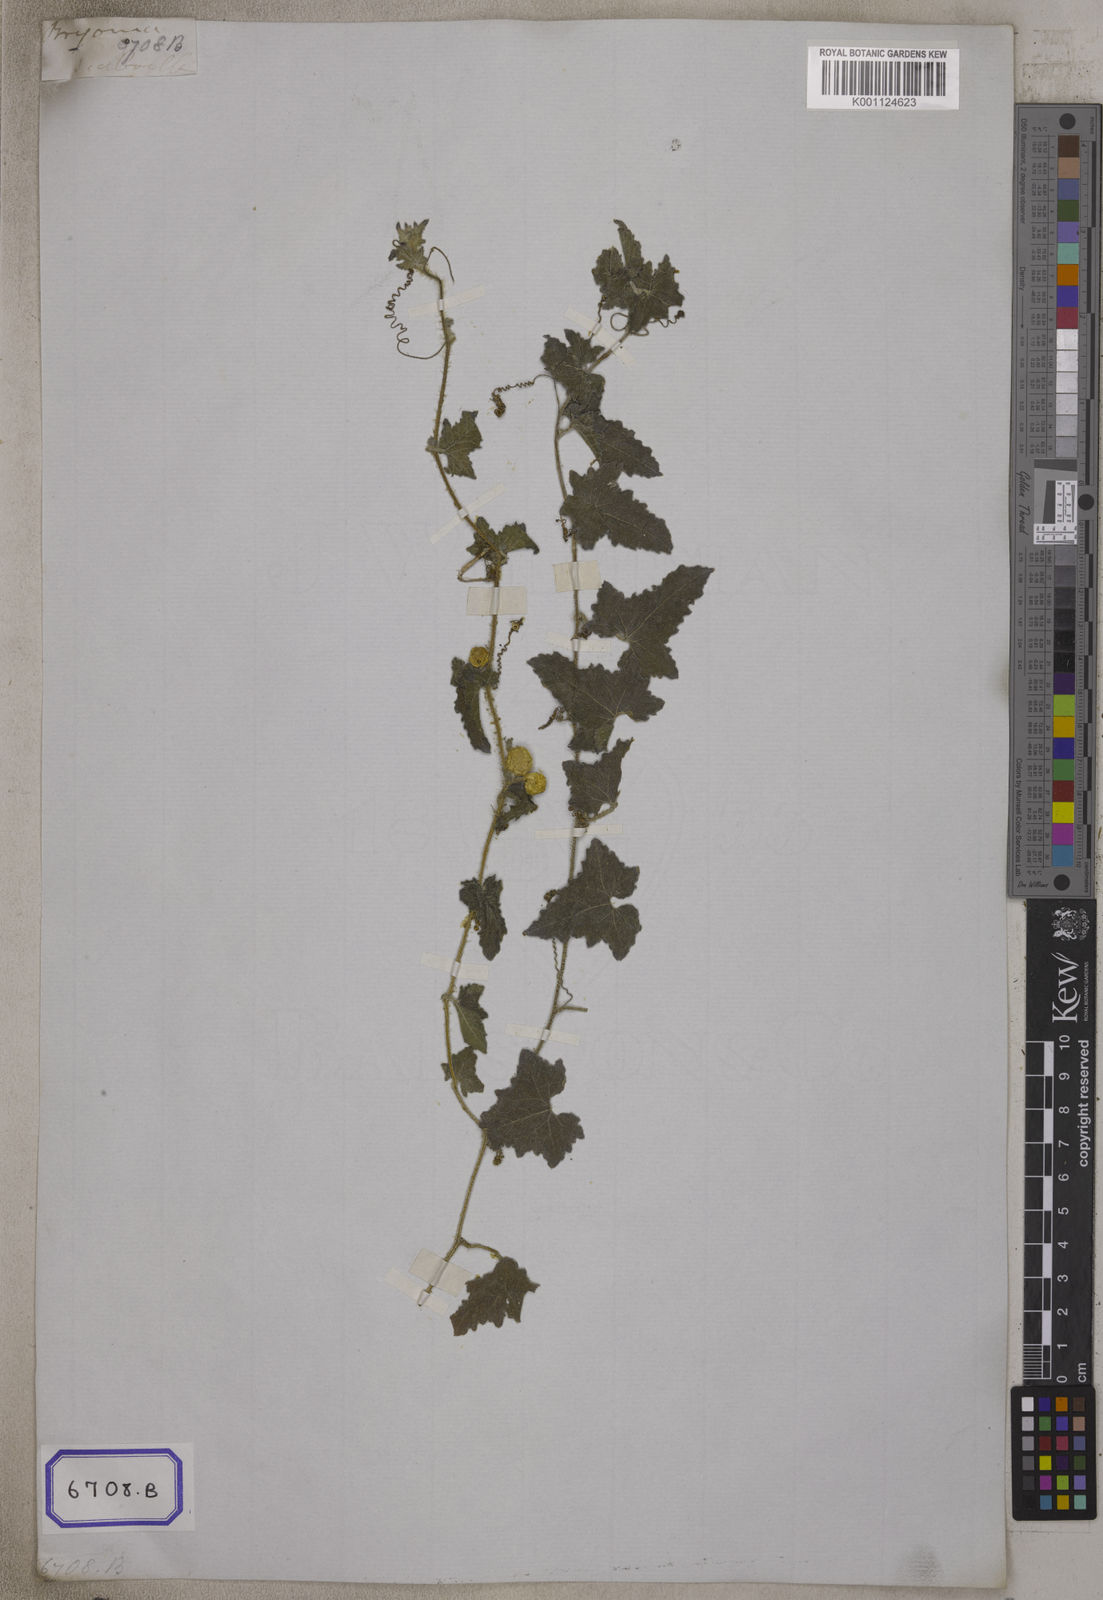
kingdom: Plantae
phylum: Tracheophyta
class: Magnoliopsida
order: Cucurbitales
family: Cucurbitaceae
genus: Bryonia
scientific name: Bryonia
